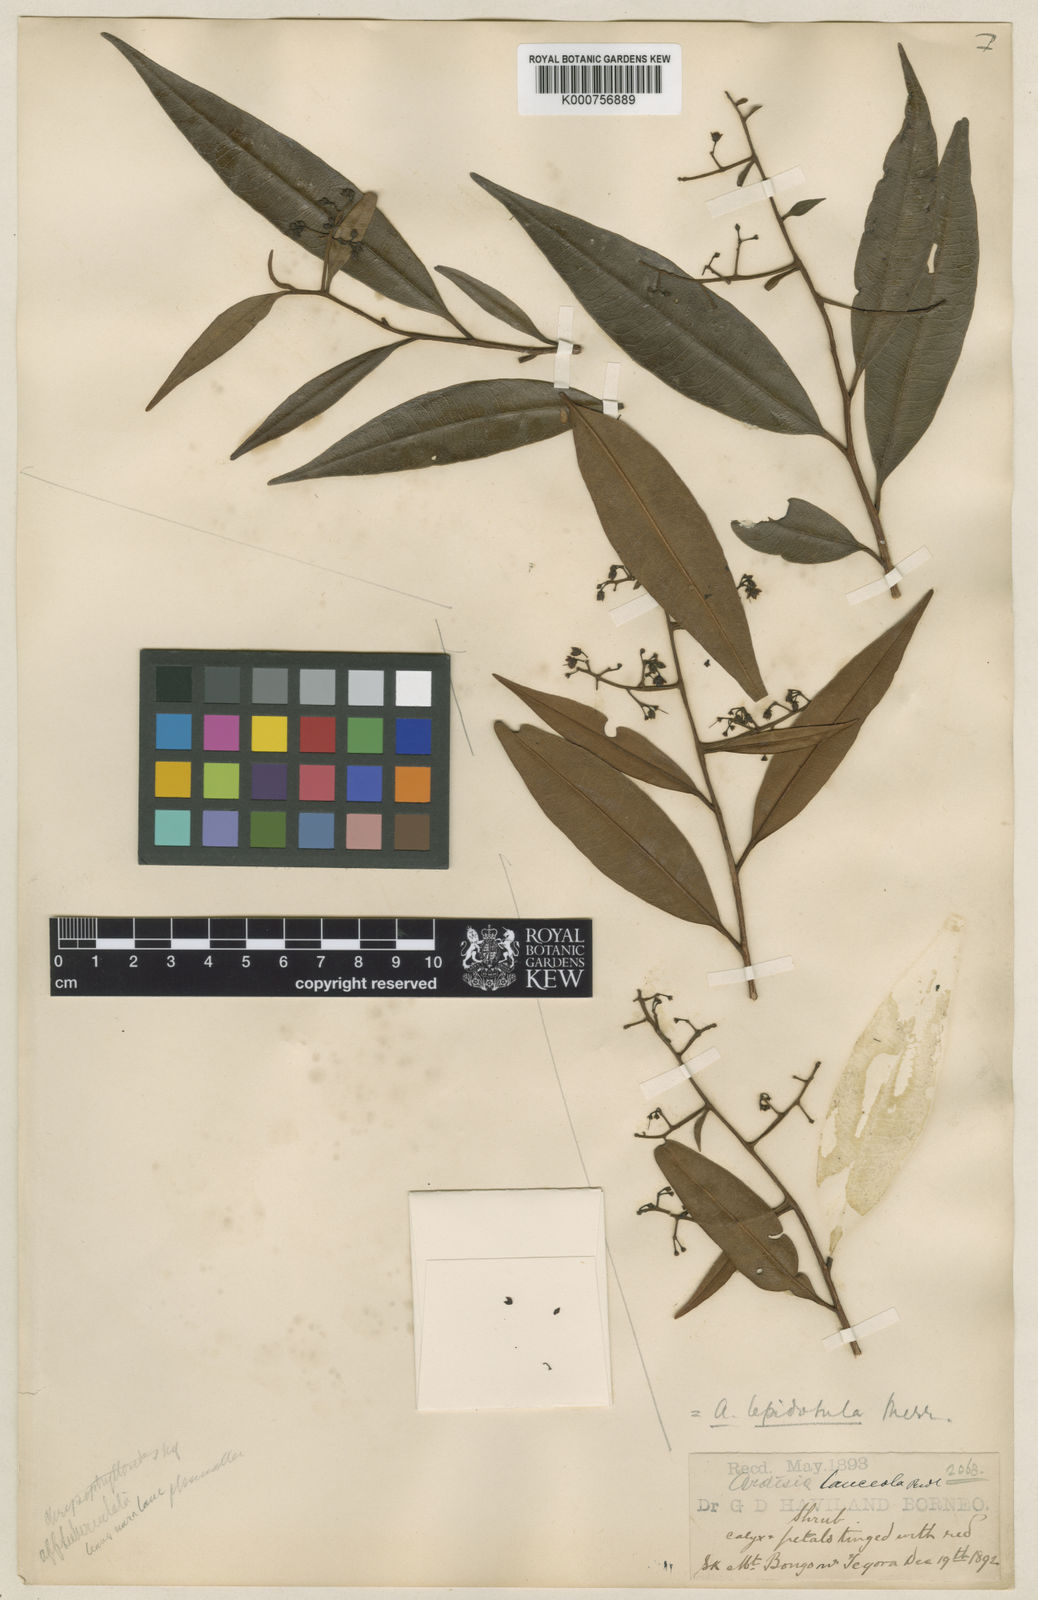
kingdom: Plantae
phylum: Tracheophyta
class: Magnoliopsida
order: Ericales
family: Primulaceae
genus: Ardisia
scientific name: Ardisia lepidotula
